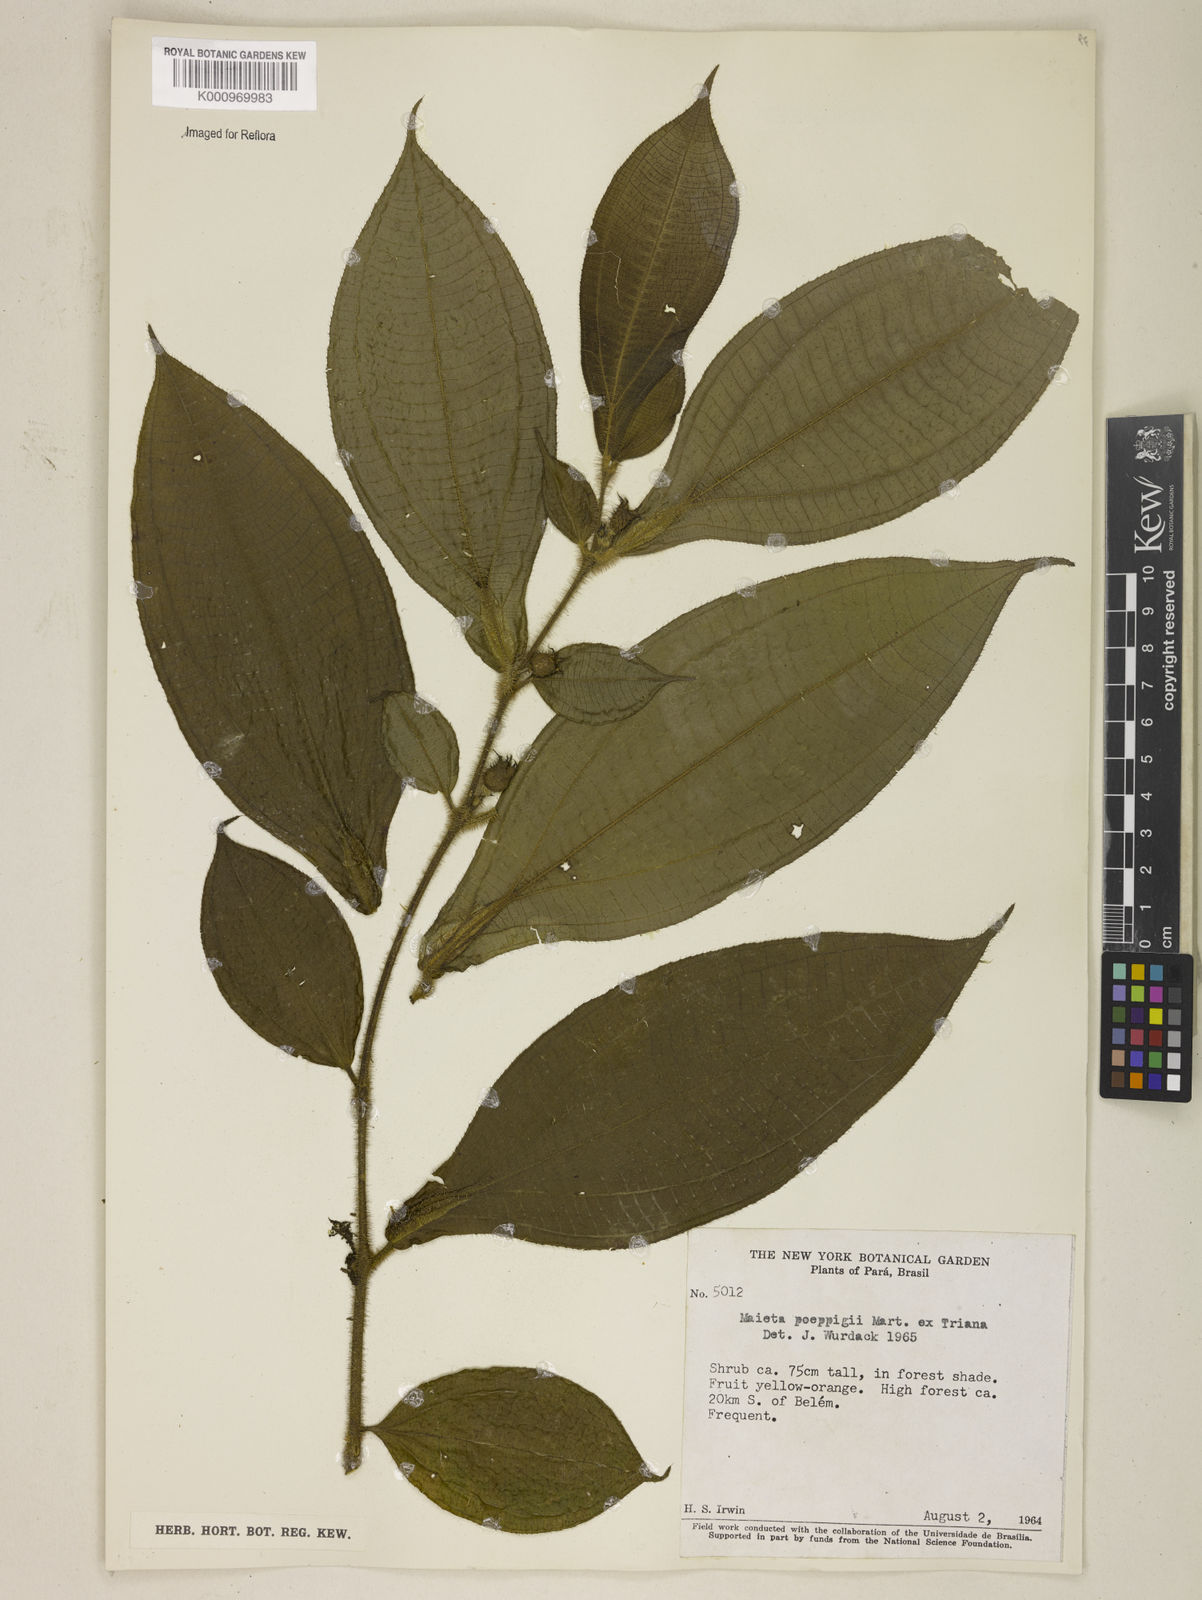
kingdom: Plantae
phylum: Tracheophyta
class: Magnoliopsida
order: Myrtales
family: Melastomataceae
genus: Miconia
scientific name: Miconia alternidomatia
